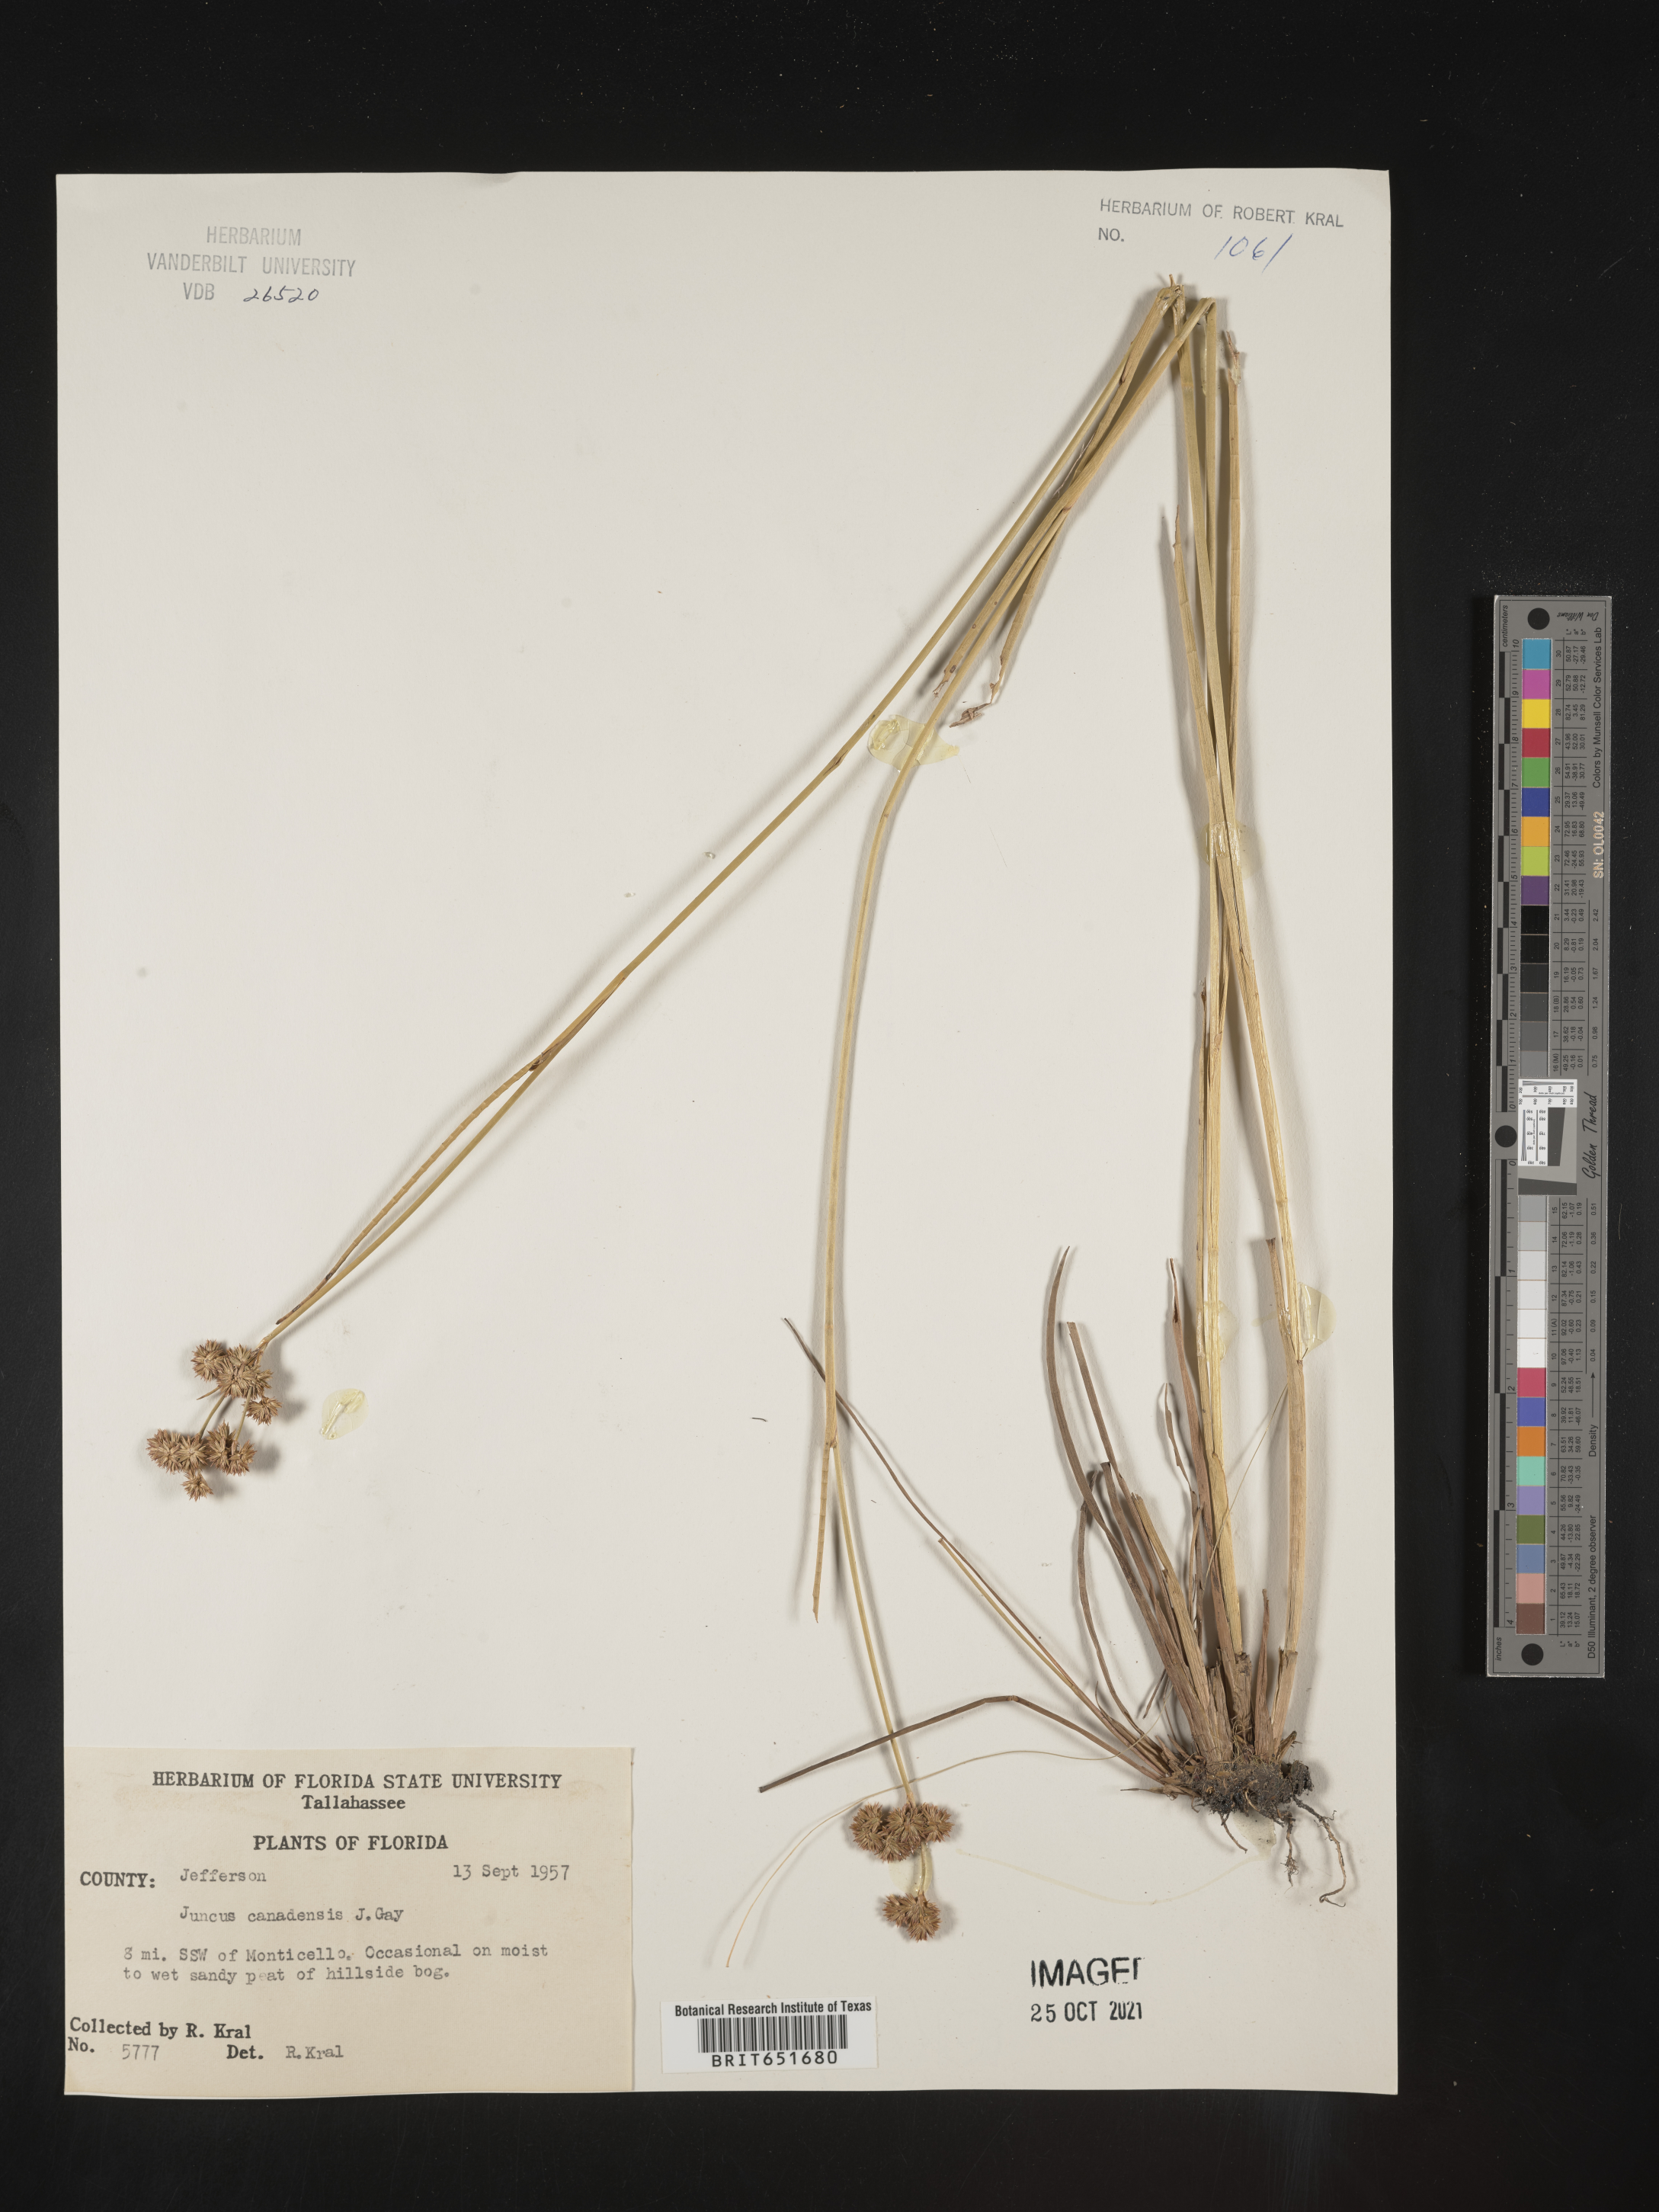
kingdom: Plantae
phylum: Tracheophyta
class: Liliopsida
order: Poales
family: Juncaceae
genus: Juncus
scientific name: Juncus canadensis
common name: Canada rush
